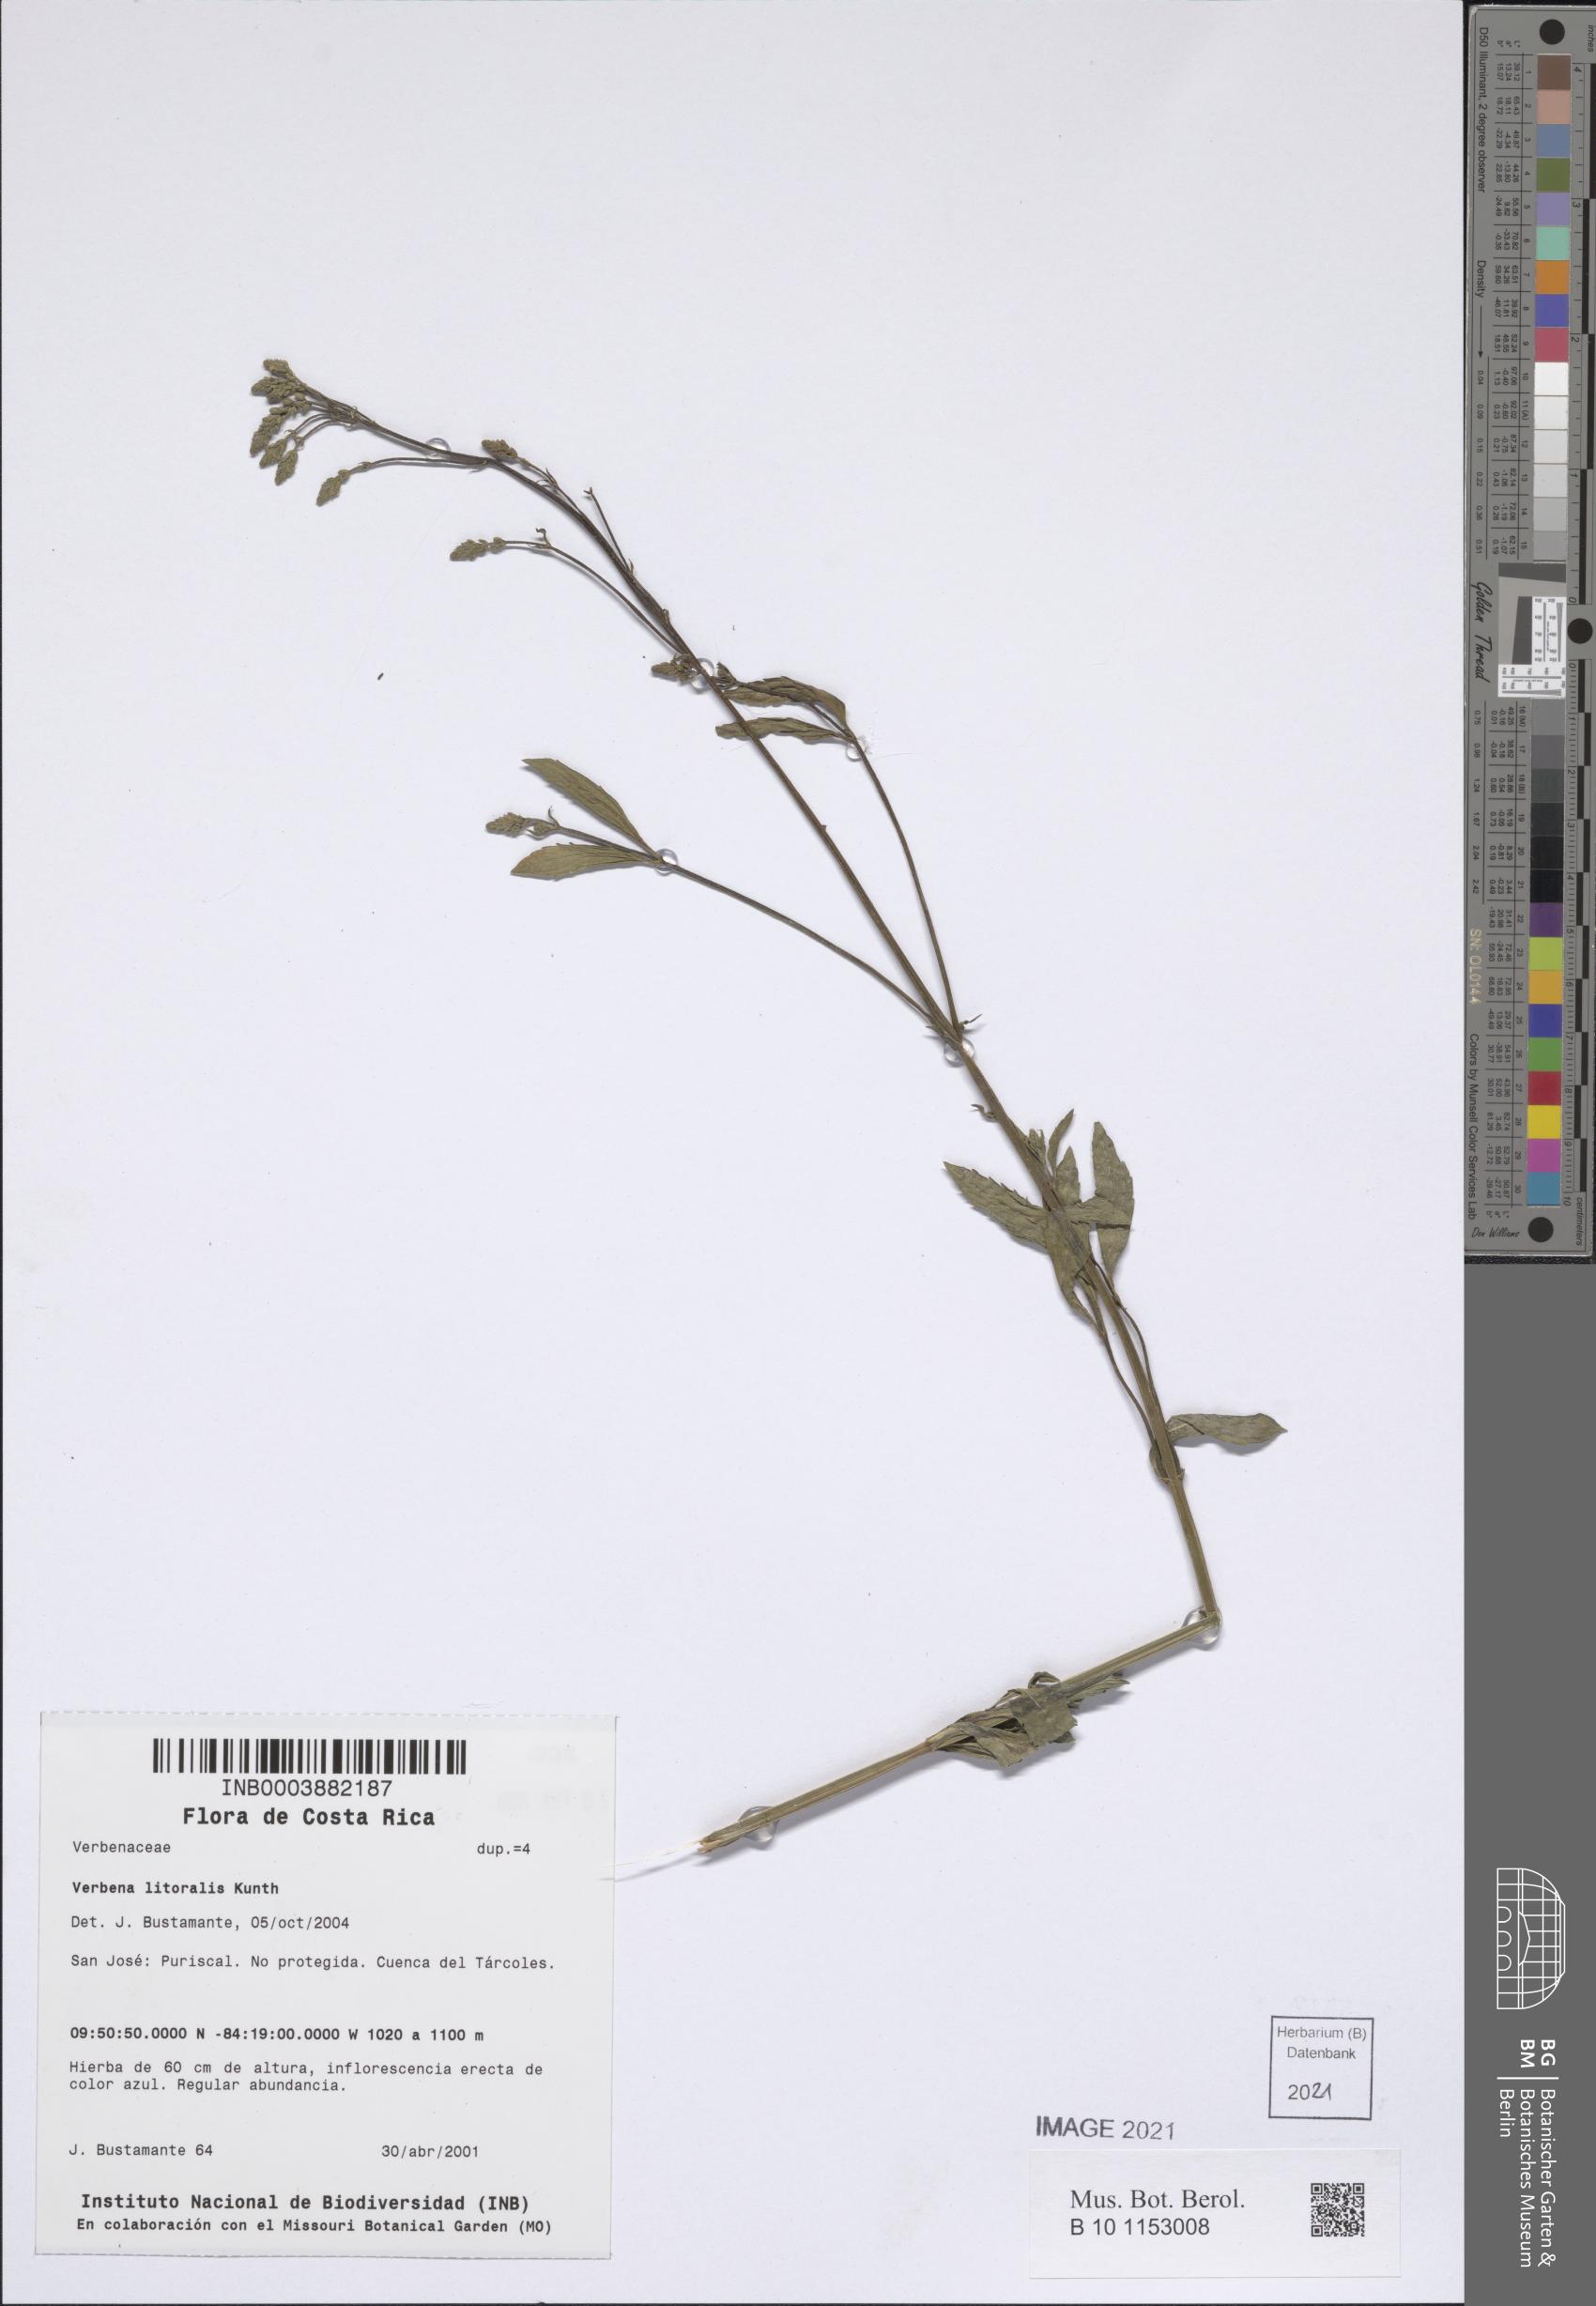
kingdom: Plantae
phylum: Tracheophyta
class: Magnoliopsida
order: Lamiales
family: Verbenaceae
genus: Verbena
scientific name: Verbena litoralis
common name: Seashore vervain
